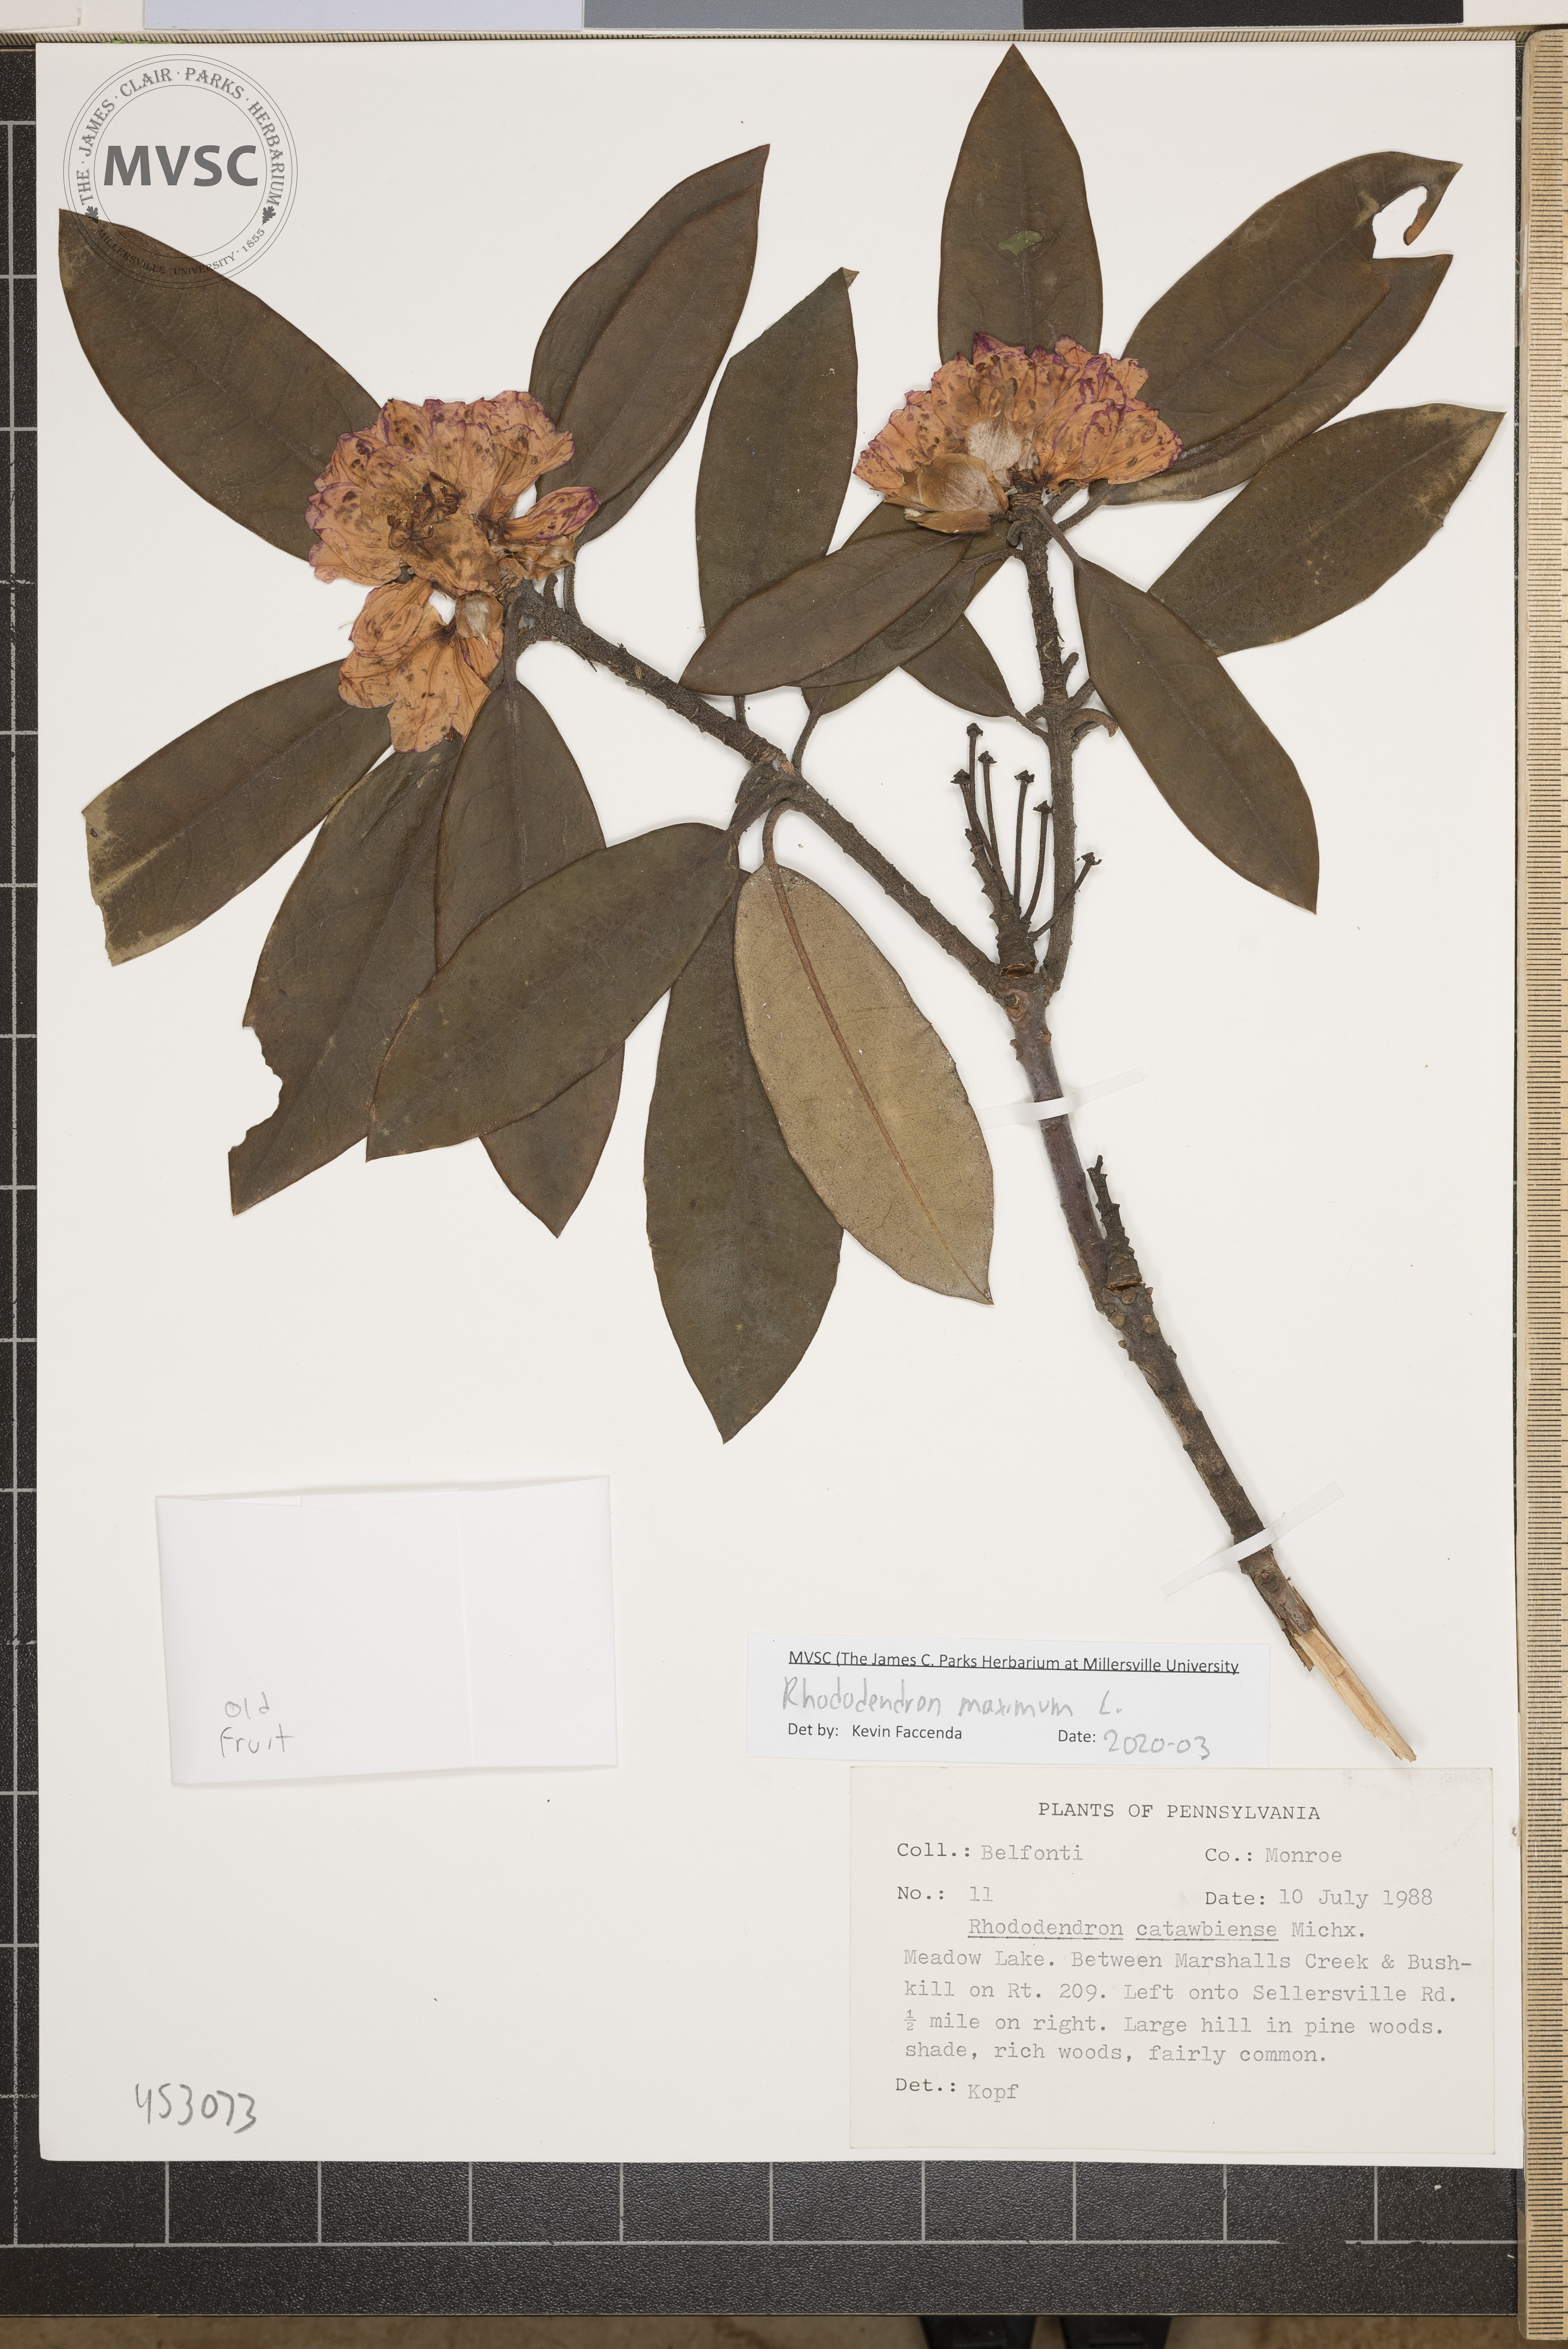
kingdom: Plantae
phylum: Tracheophyta
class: Magnoliopsida
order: Ericales
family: Ericaceae
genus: Rhododendron
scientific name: Rhododendron maximum
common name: Great rhododendron
